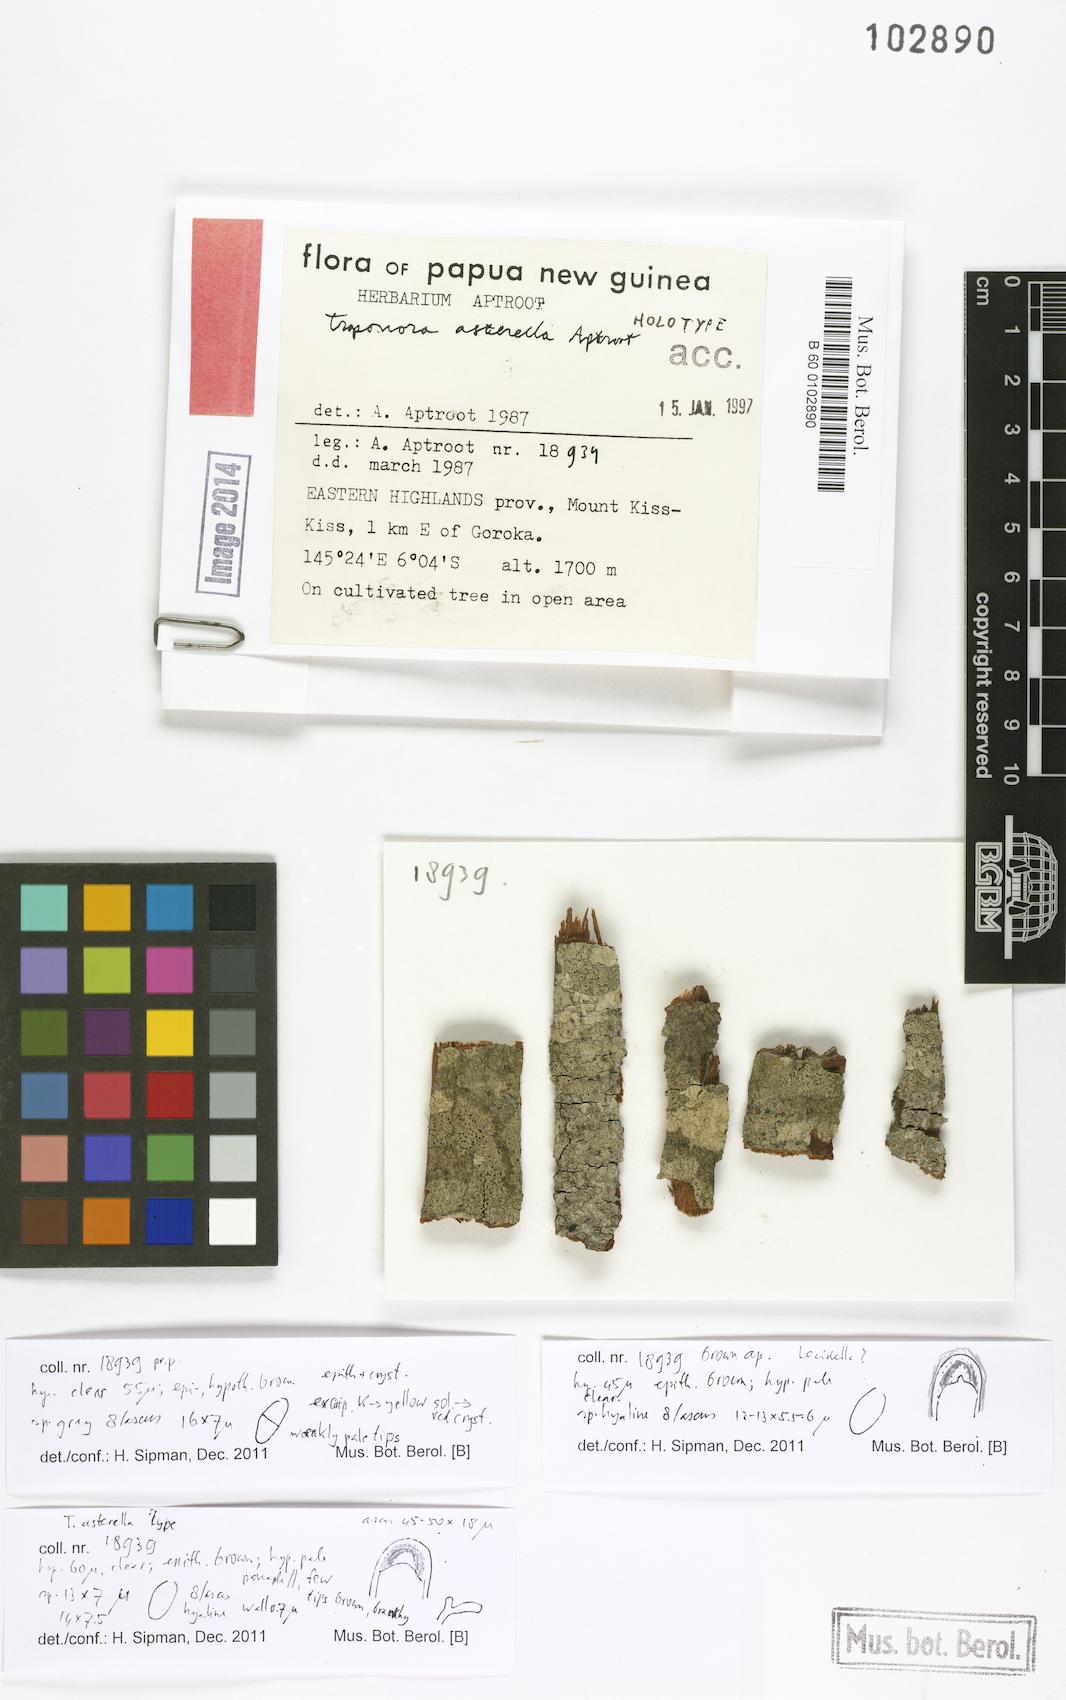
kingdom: Fungi
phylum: Ascomycota
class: Lecanoromycetes
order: Lecanorales
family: Lecanoraceae
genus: Traponora
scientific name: Traponora asterella
